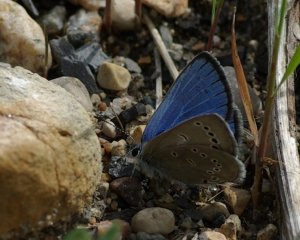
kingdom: Animalia
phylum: Arthropoda
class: Insecta
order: Lepidoptera
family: Lycaenidae
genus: Glaucopsyche
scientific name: Glaucopsyche lygdamus
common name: Silvery Blue
